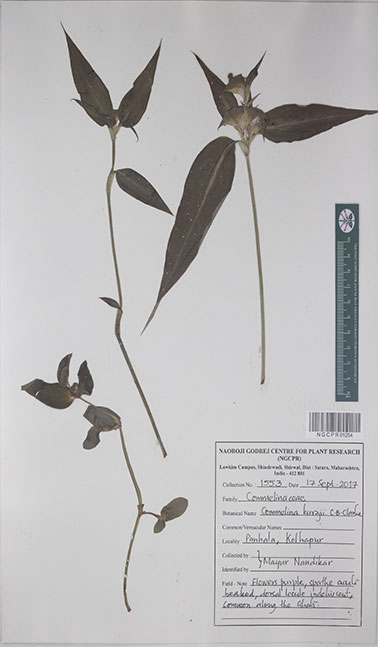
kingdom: Plantae
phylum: Tracheophyta
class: Liliopsida
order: Commelinales
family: Commelinaceae
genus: Commelina
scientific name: Commelina undulata
